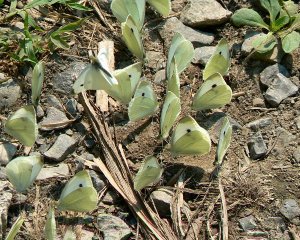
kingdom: Animalia
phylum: Arthropoda
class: Insecta
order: Lepidoptera
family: Pieridae
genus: Pieris
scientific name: Pieris rapae
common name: Cabbage White
